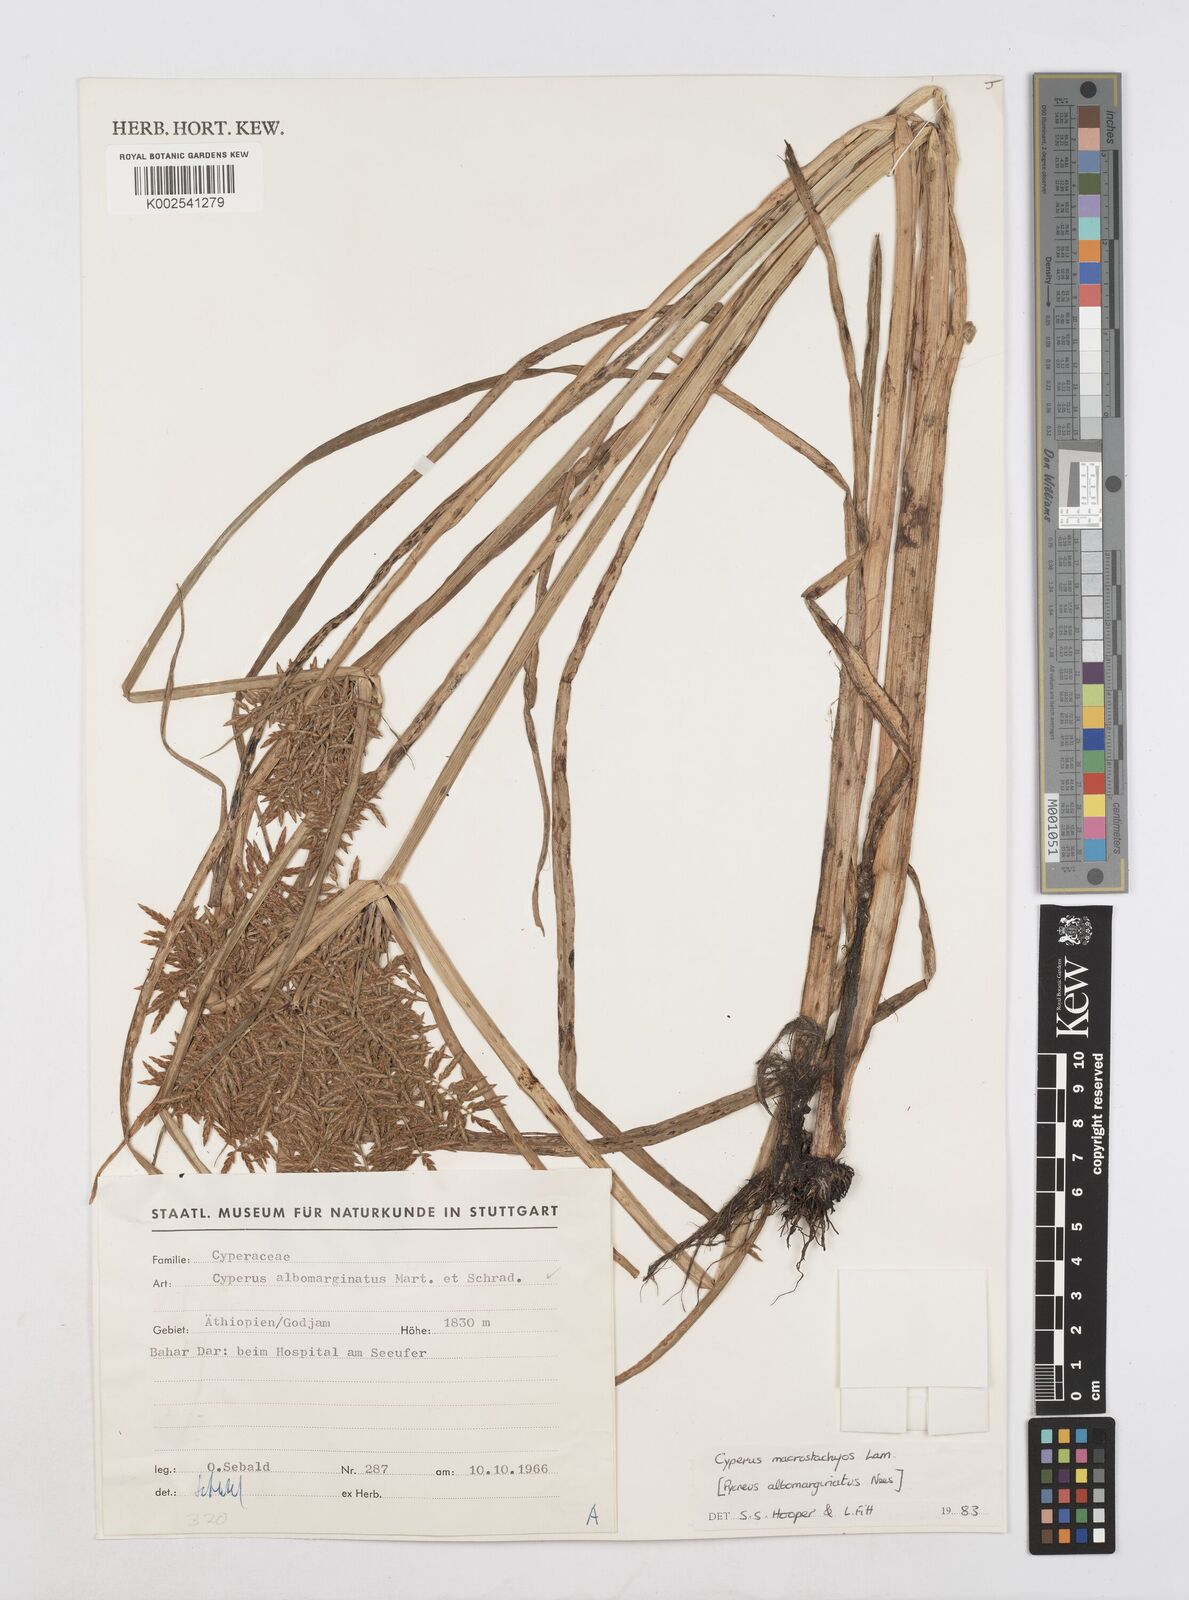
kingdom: Plantae
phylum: Tracheophyta
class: Liliopsida
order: Poales
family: Cyperaceae
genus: Cyperus
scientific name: Cyperus macrostachyos
